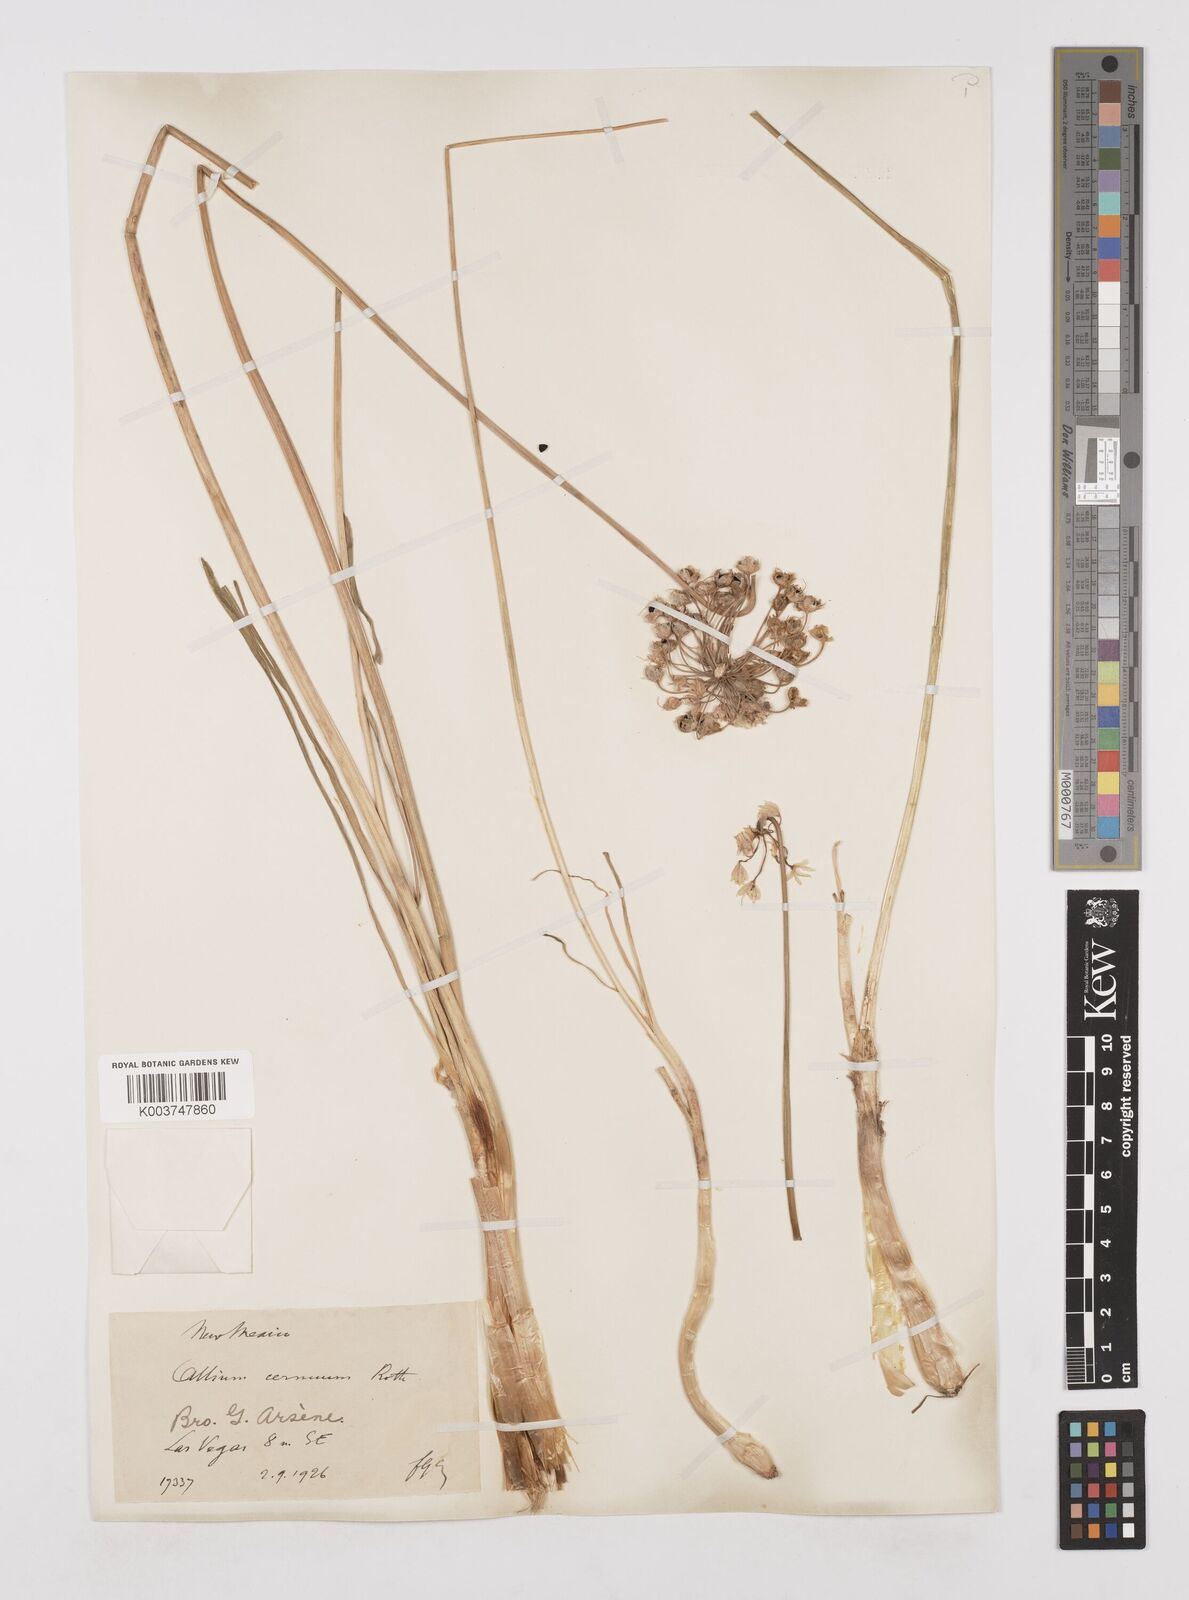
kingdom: Plantae
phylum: Tracheophyta
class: Liliopsida
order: Asparagales
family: Amaryllidaceae
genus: Allium
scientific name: Allium cernuum
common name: Nodding onion
